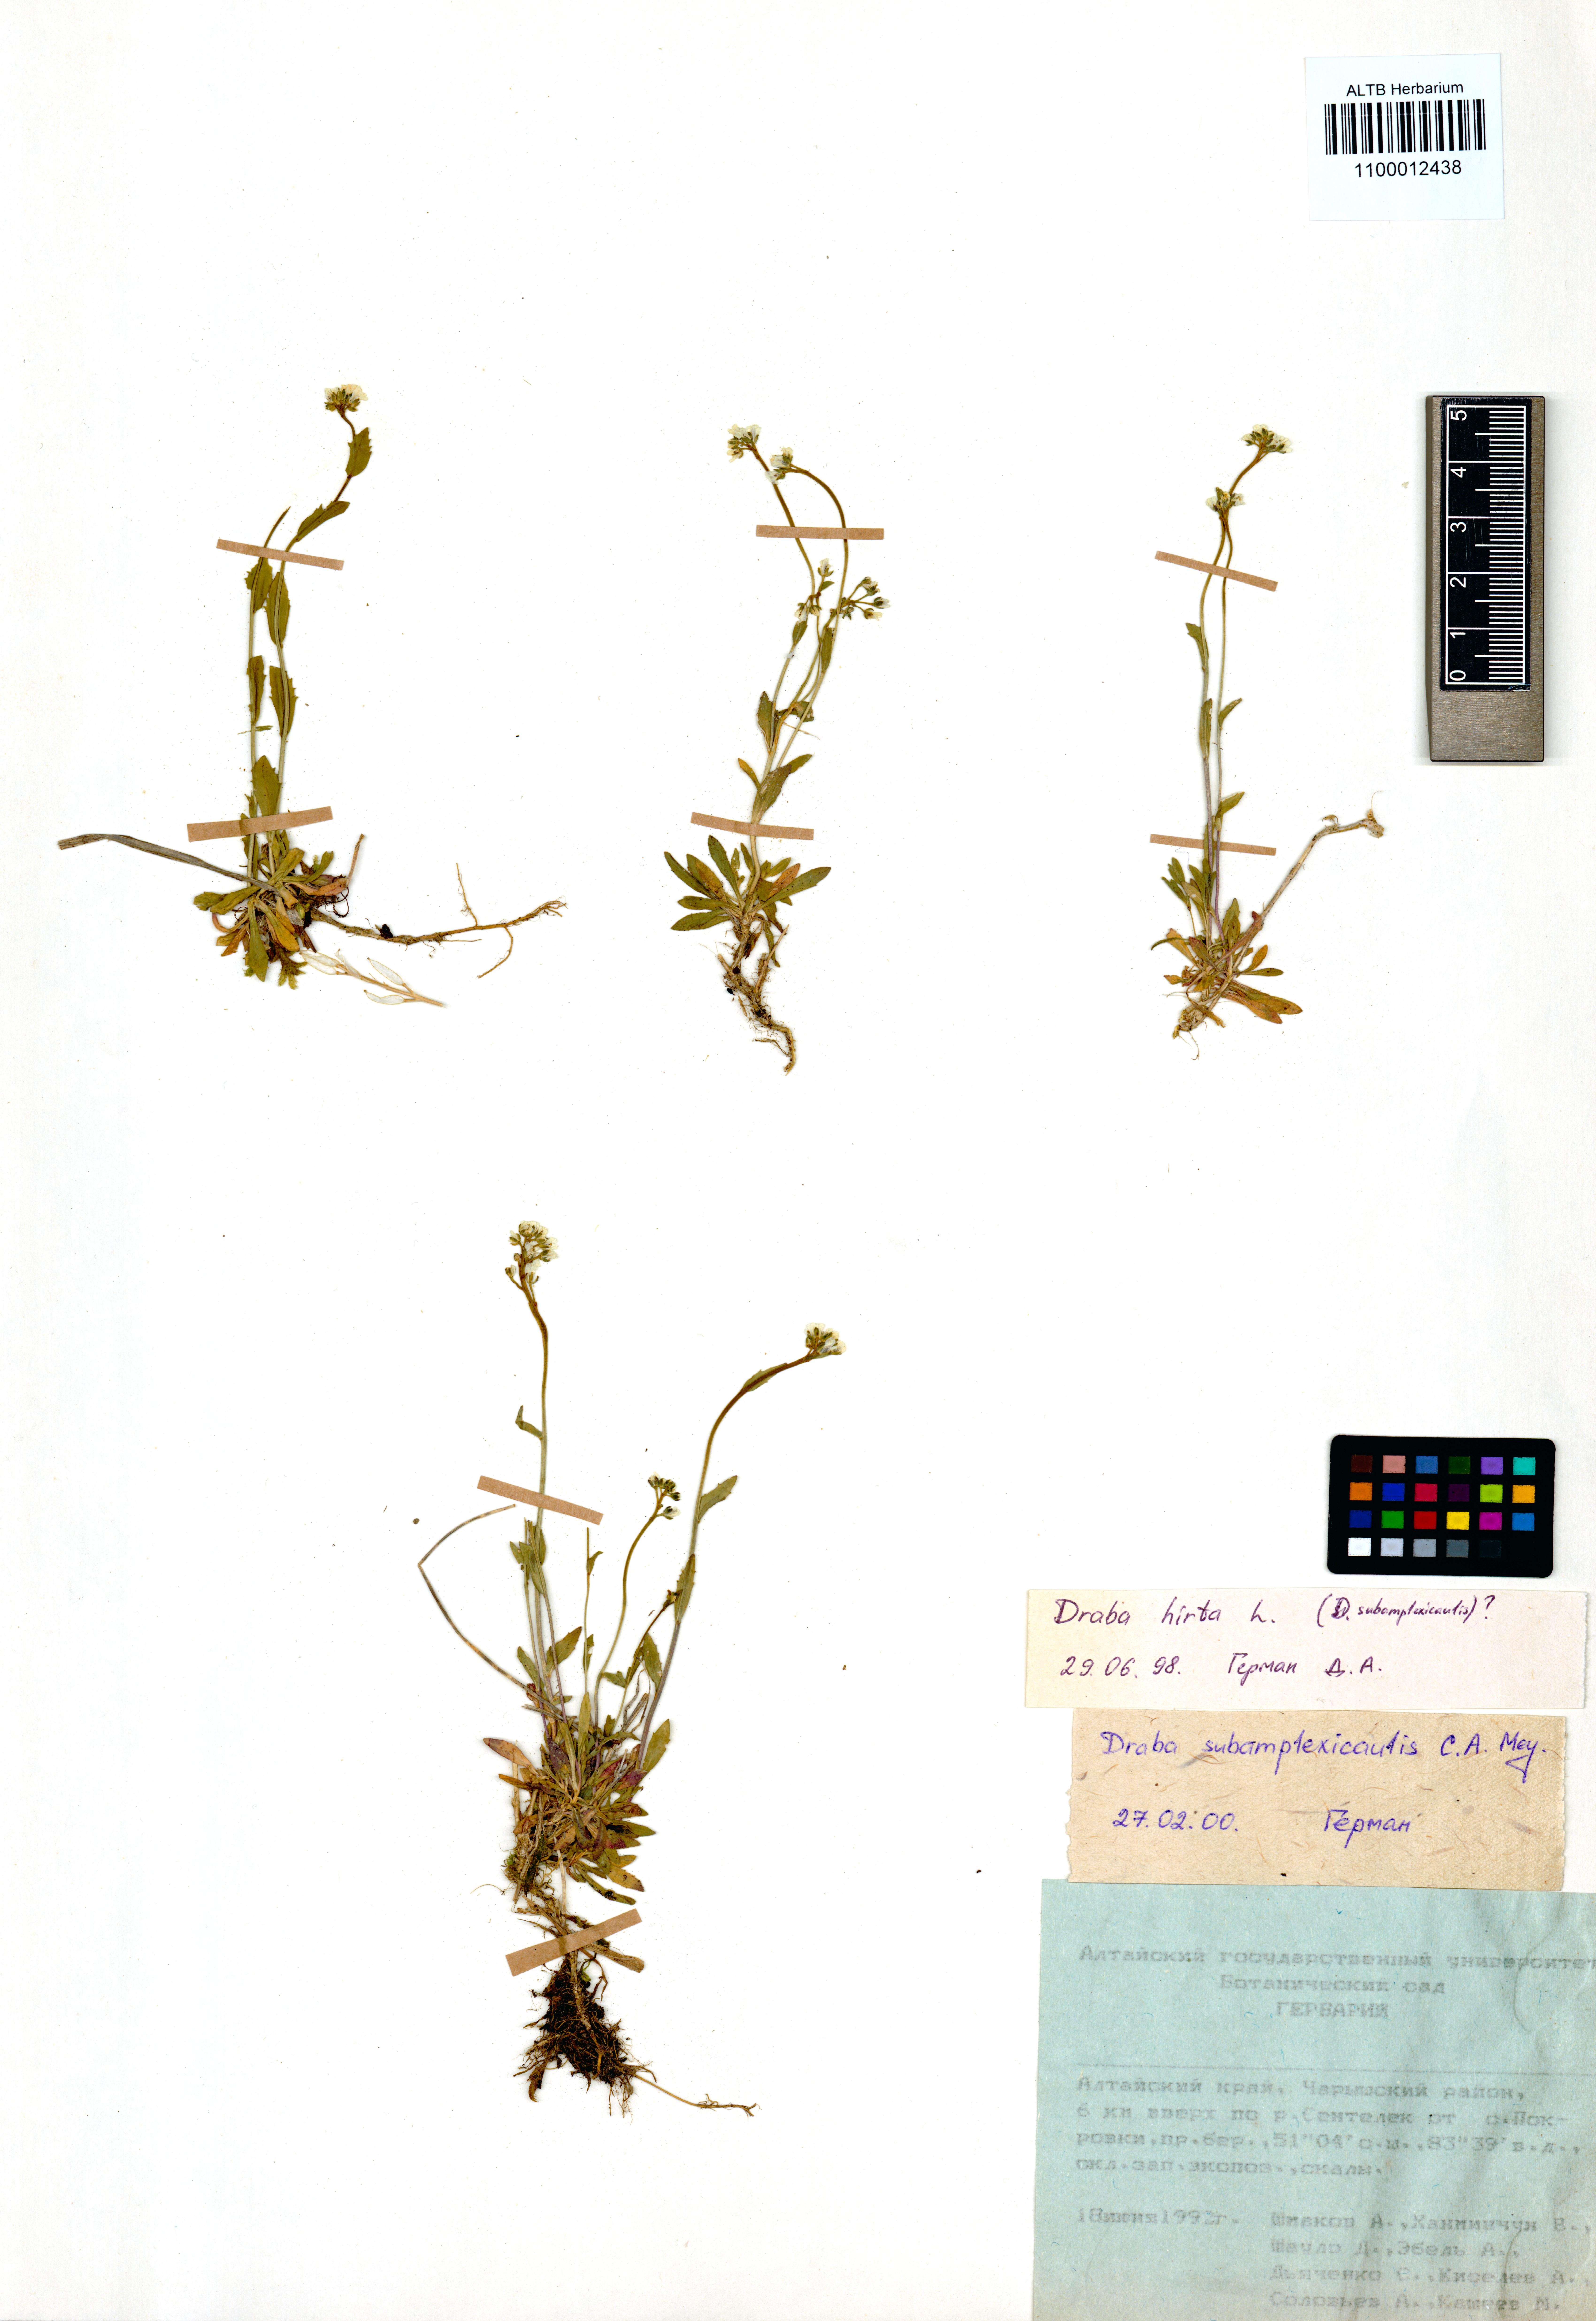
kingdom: Plantae
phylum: Tracheophyta
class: Magnoliopsida
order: Brassicales
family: Brassicaceae
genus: Draba
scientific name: Draba subamplexicaulis
